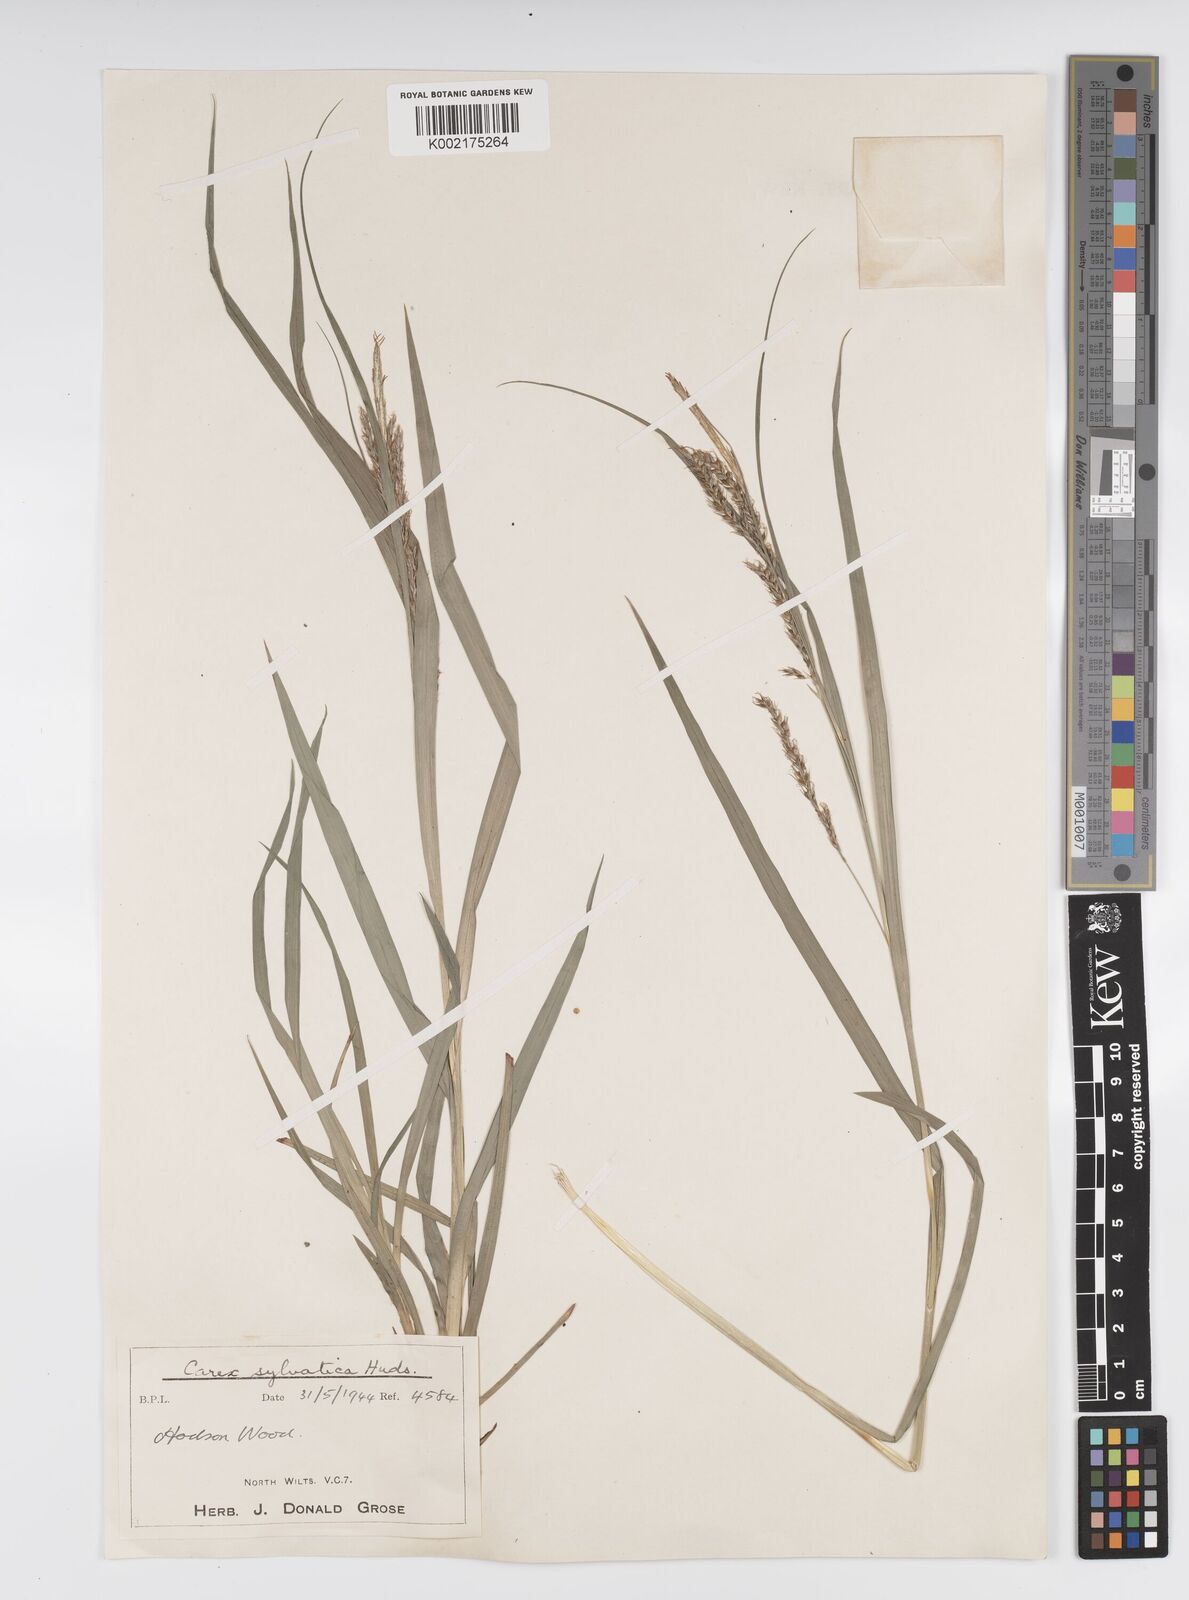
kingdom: Plantae
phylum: Tracheophyta
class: Liliopsida
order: Poales
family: Cyperaceae
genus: Carex
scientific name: Carex sylvatica
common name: Wood-sedge
